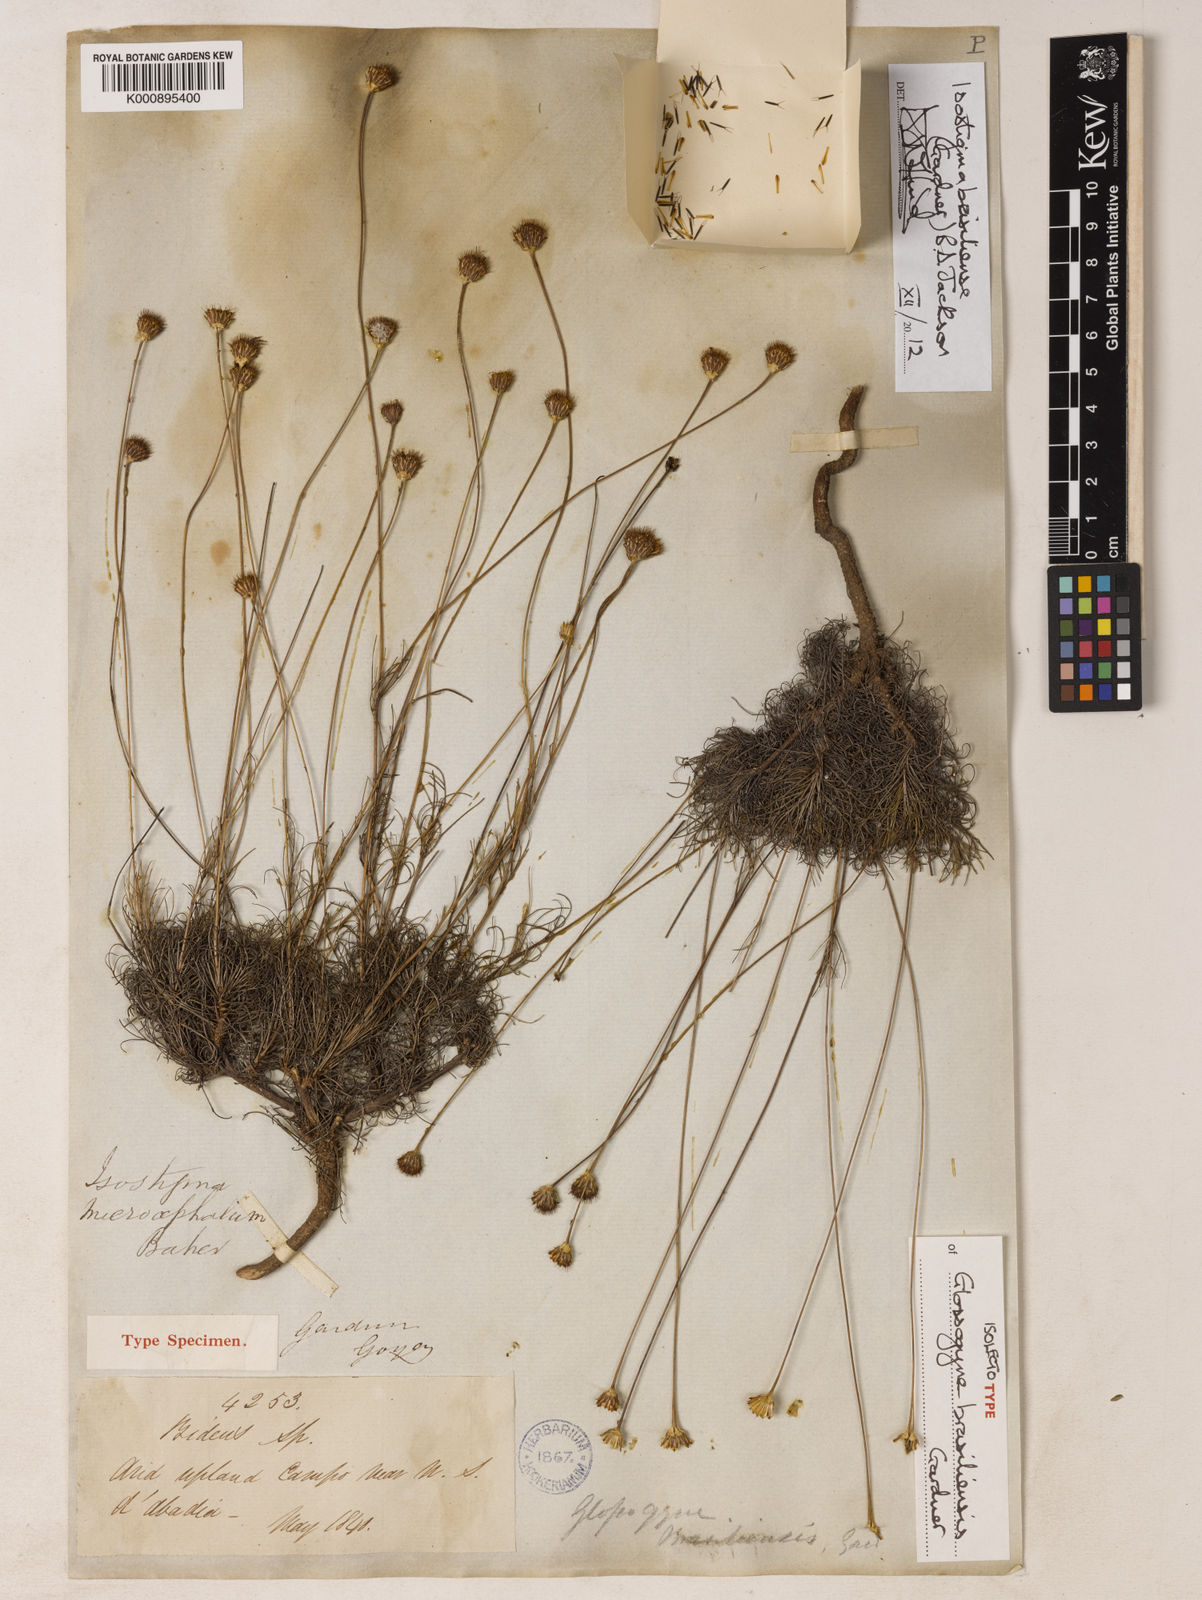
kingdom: Plantae
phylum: Tracheophyta
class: Magnoliopsida
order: Asterales
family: Asteraceae
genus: Isostigma
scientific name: Isostigma brasiliense
